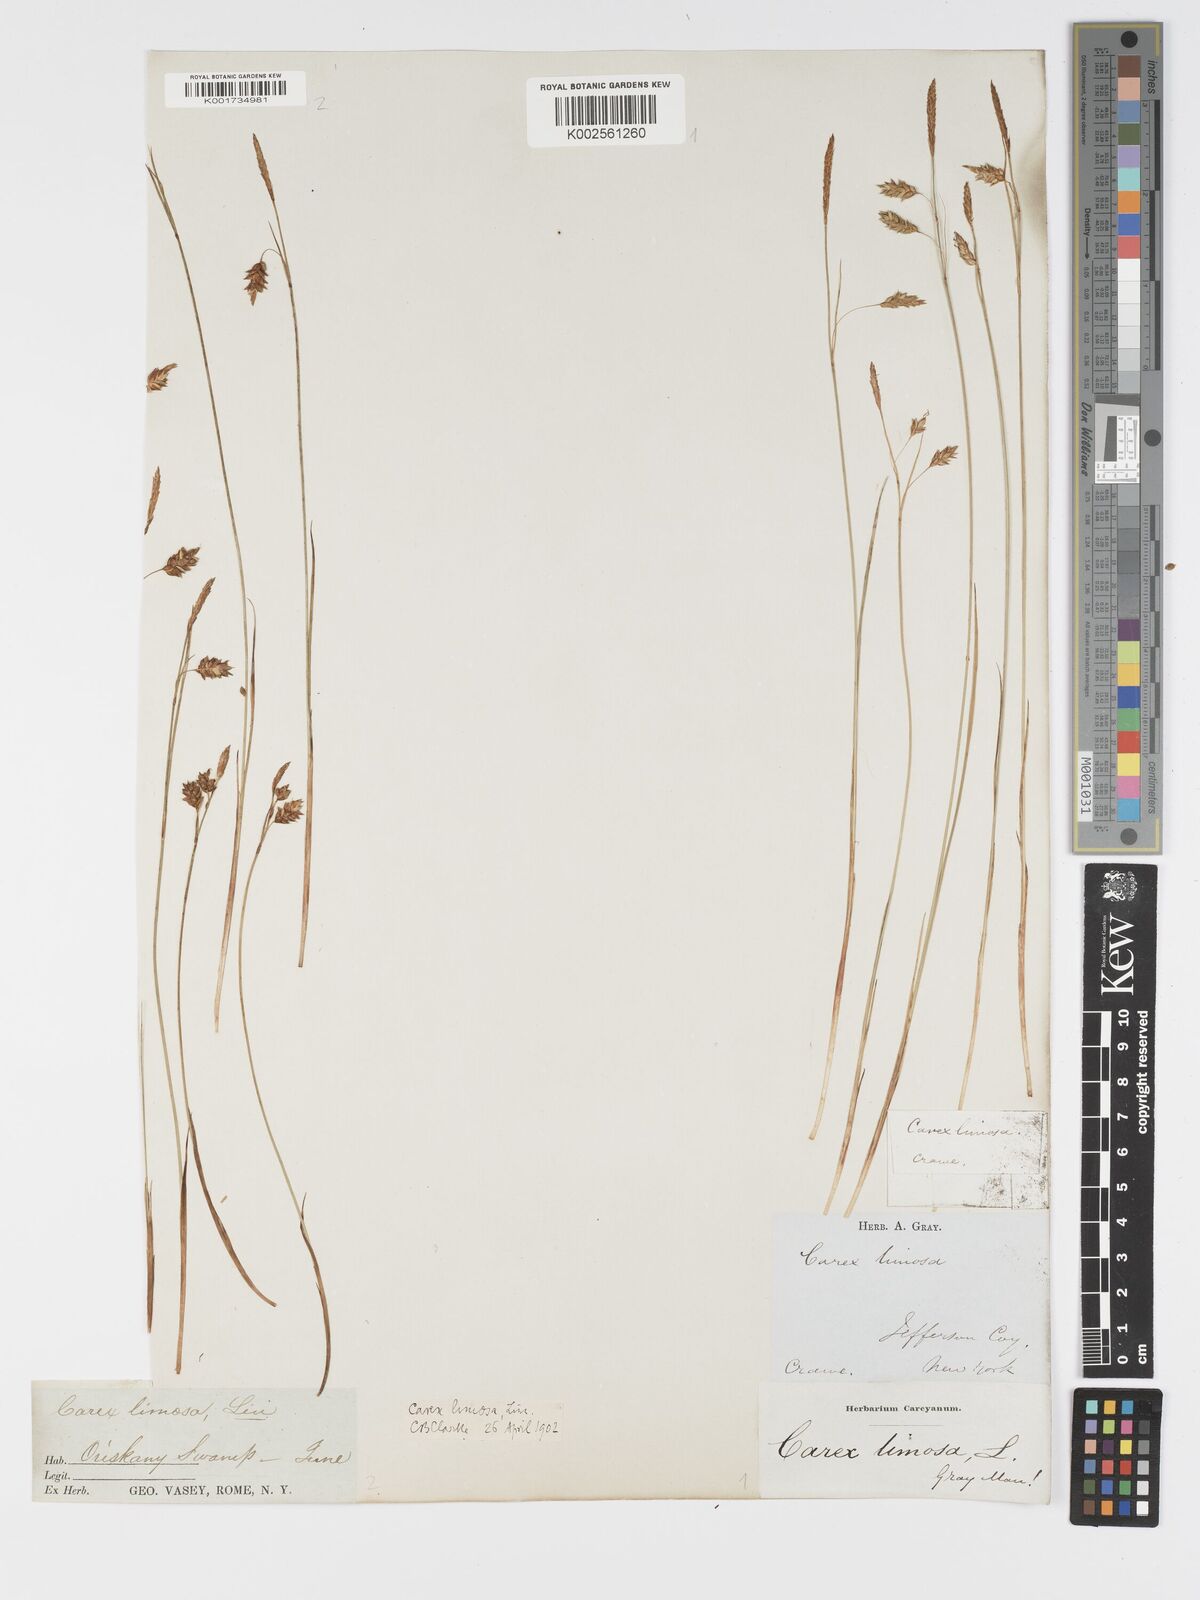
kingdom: Plantae
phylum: Tracheophyta
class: Liliopsida
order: Poales
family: Cyperaceae
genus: Carex
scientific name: Carex limosa
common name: Bog sedge
